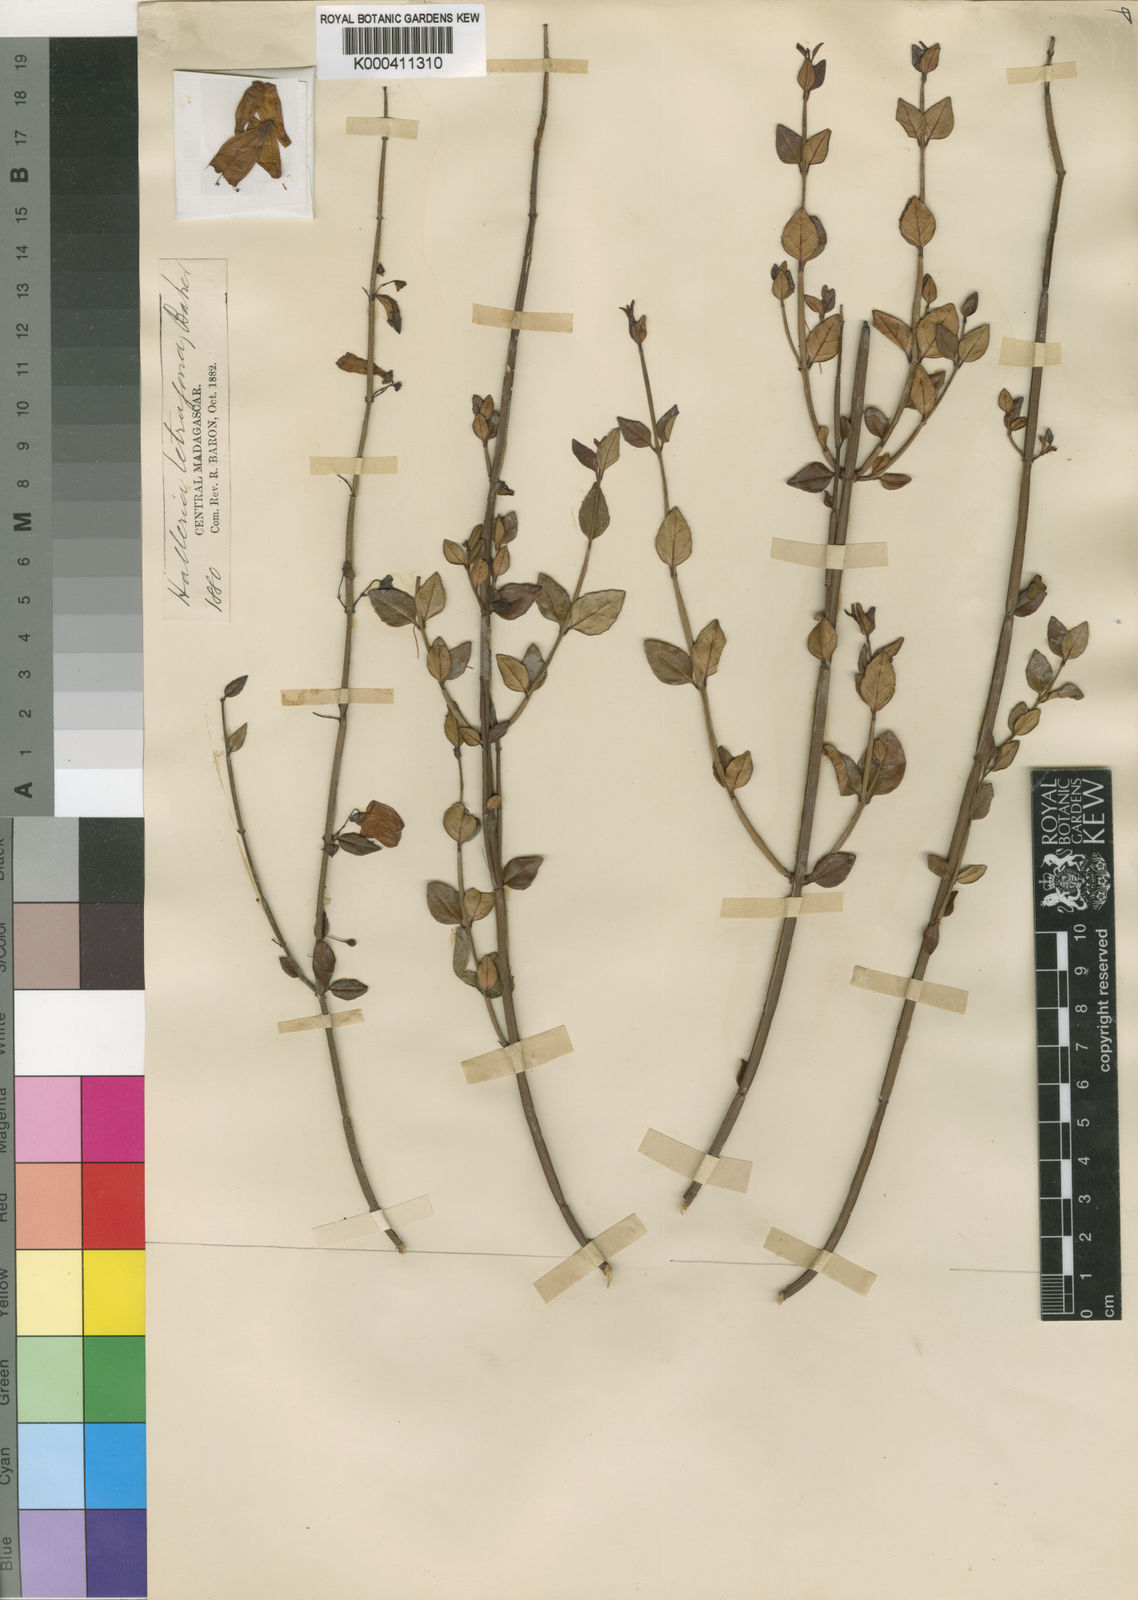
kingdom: Plantae
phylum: Tracheophyta
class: Magnoliopsida
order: Lamiales
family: Stilbaceae
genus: Halleria
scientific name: Halleria ligustrifolia
